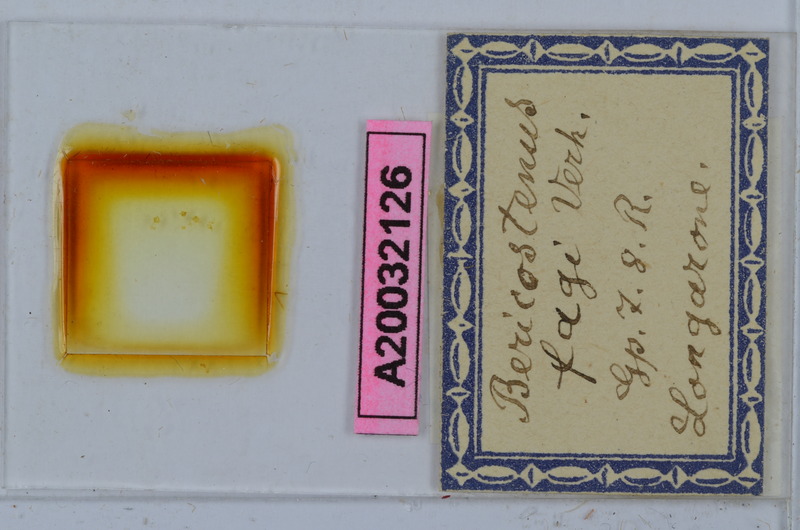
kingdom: Animalia
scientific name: Animalia
